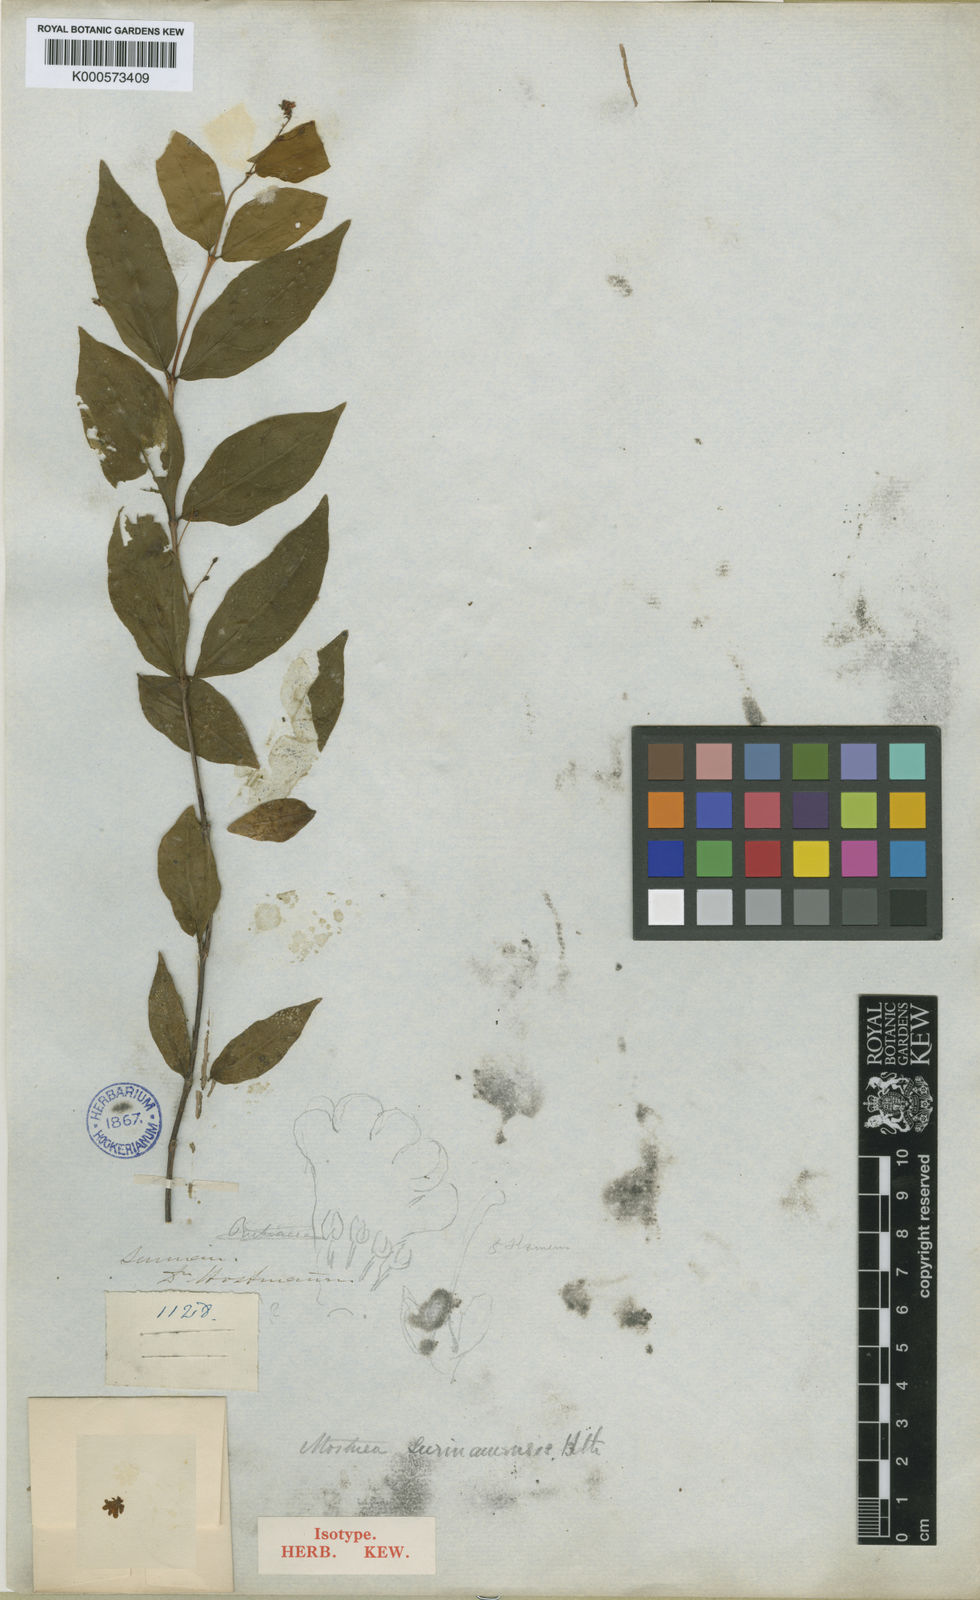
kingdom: Plantae
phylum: Tracheophyta
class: Magnoliopsida
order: Gentianales
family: Gelsemiaceae
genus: Mostuea
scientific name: Mostuea surinamensis
